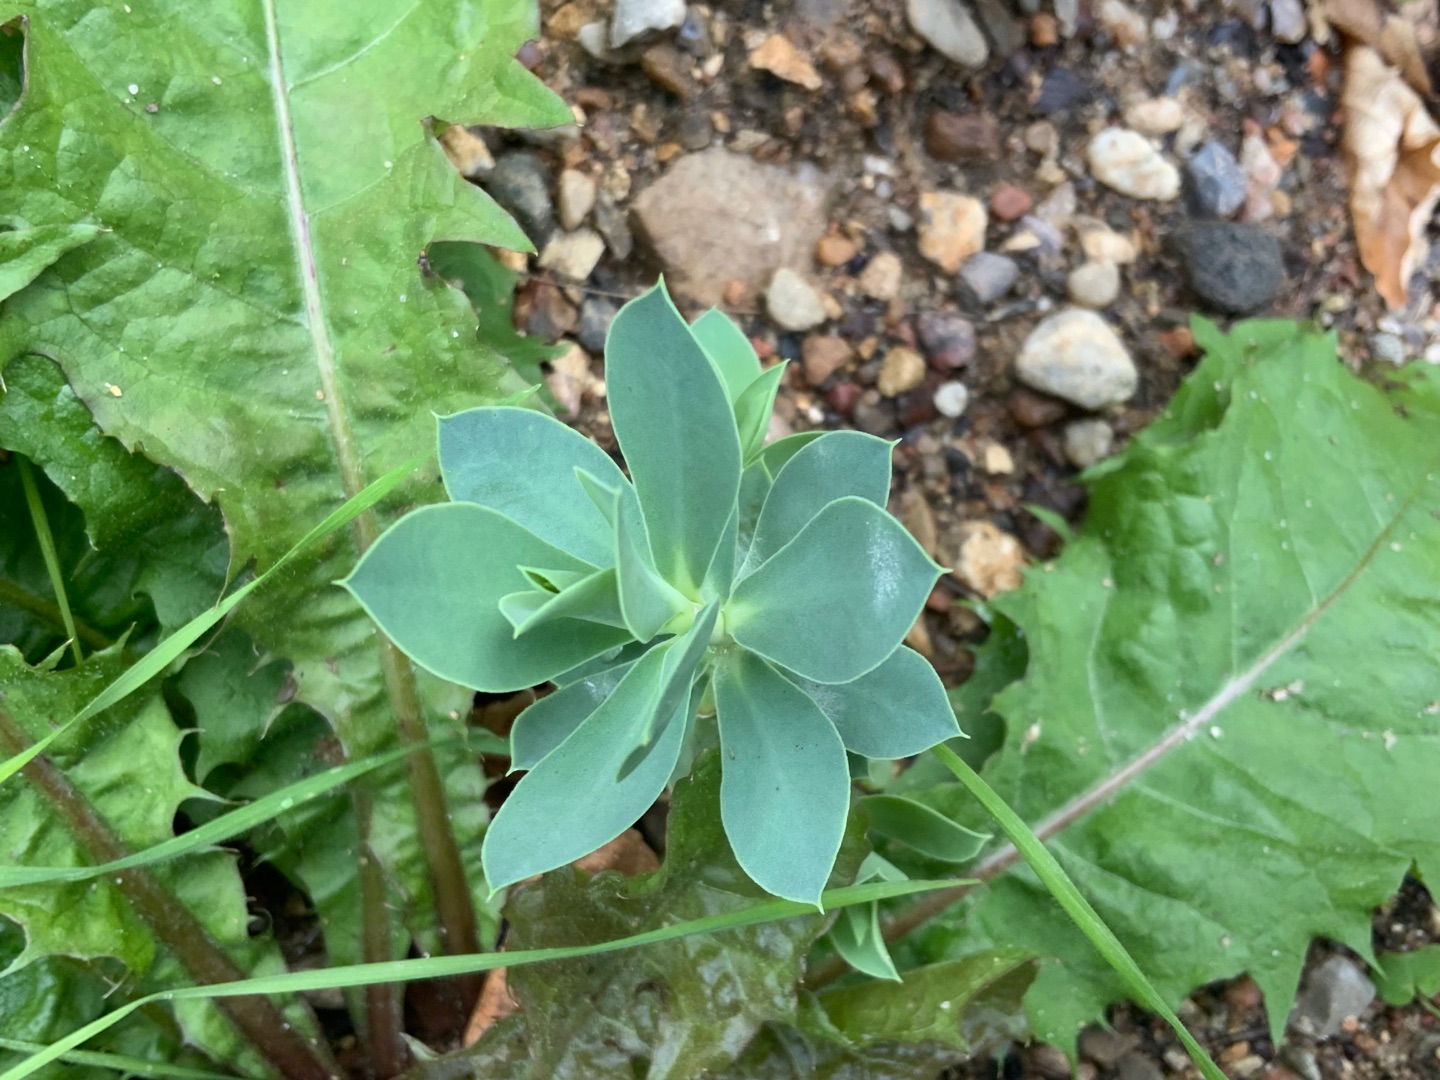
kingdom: Plantae
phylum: Tracheophyta
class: Magnoliopsida
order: Malpighiales
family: Euphorbiaceae
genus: Euphorbia
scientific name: Euphorbia myrsinites
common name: Blågrøn vortemælk
